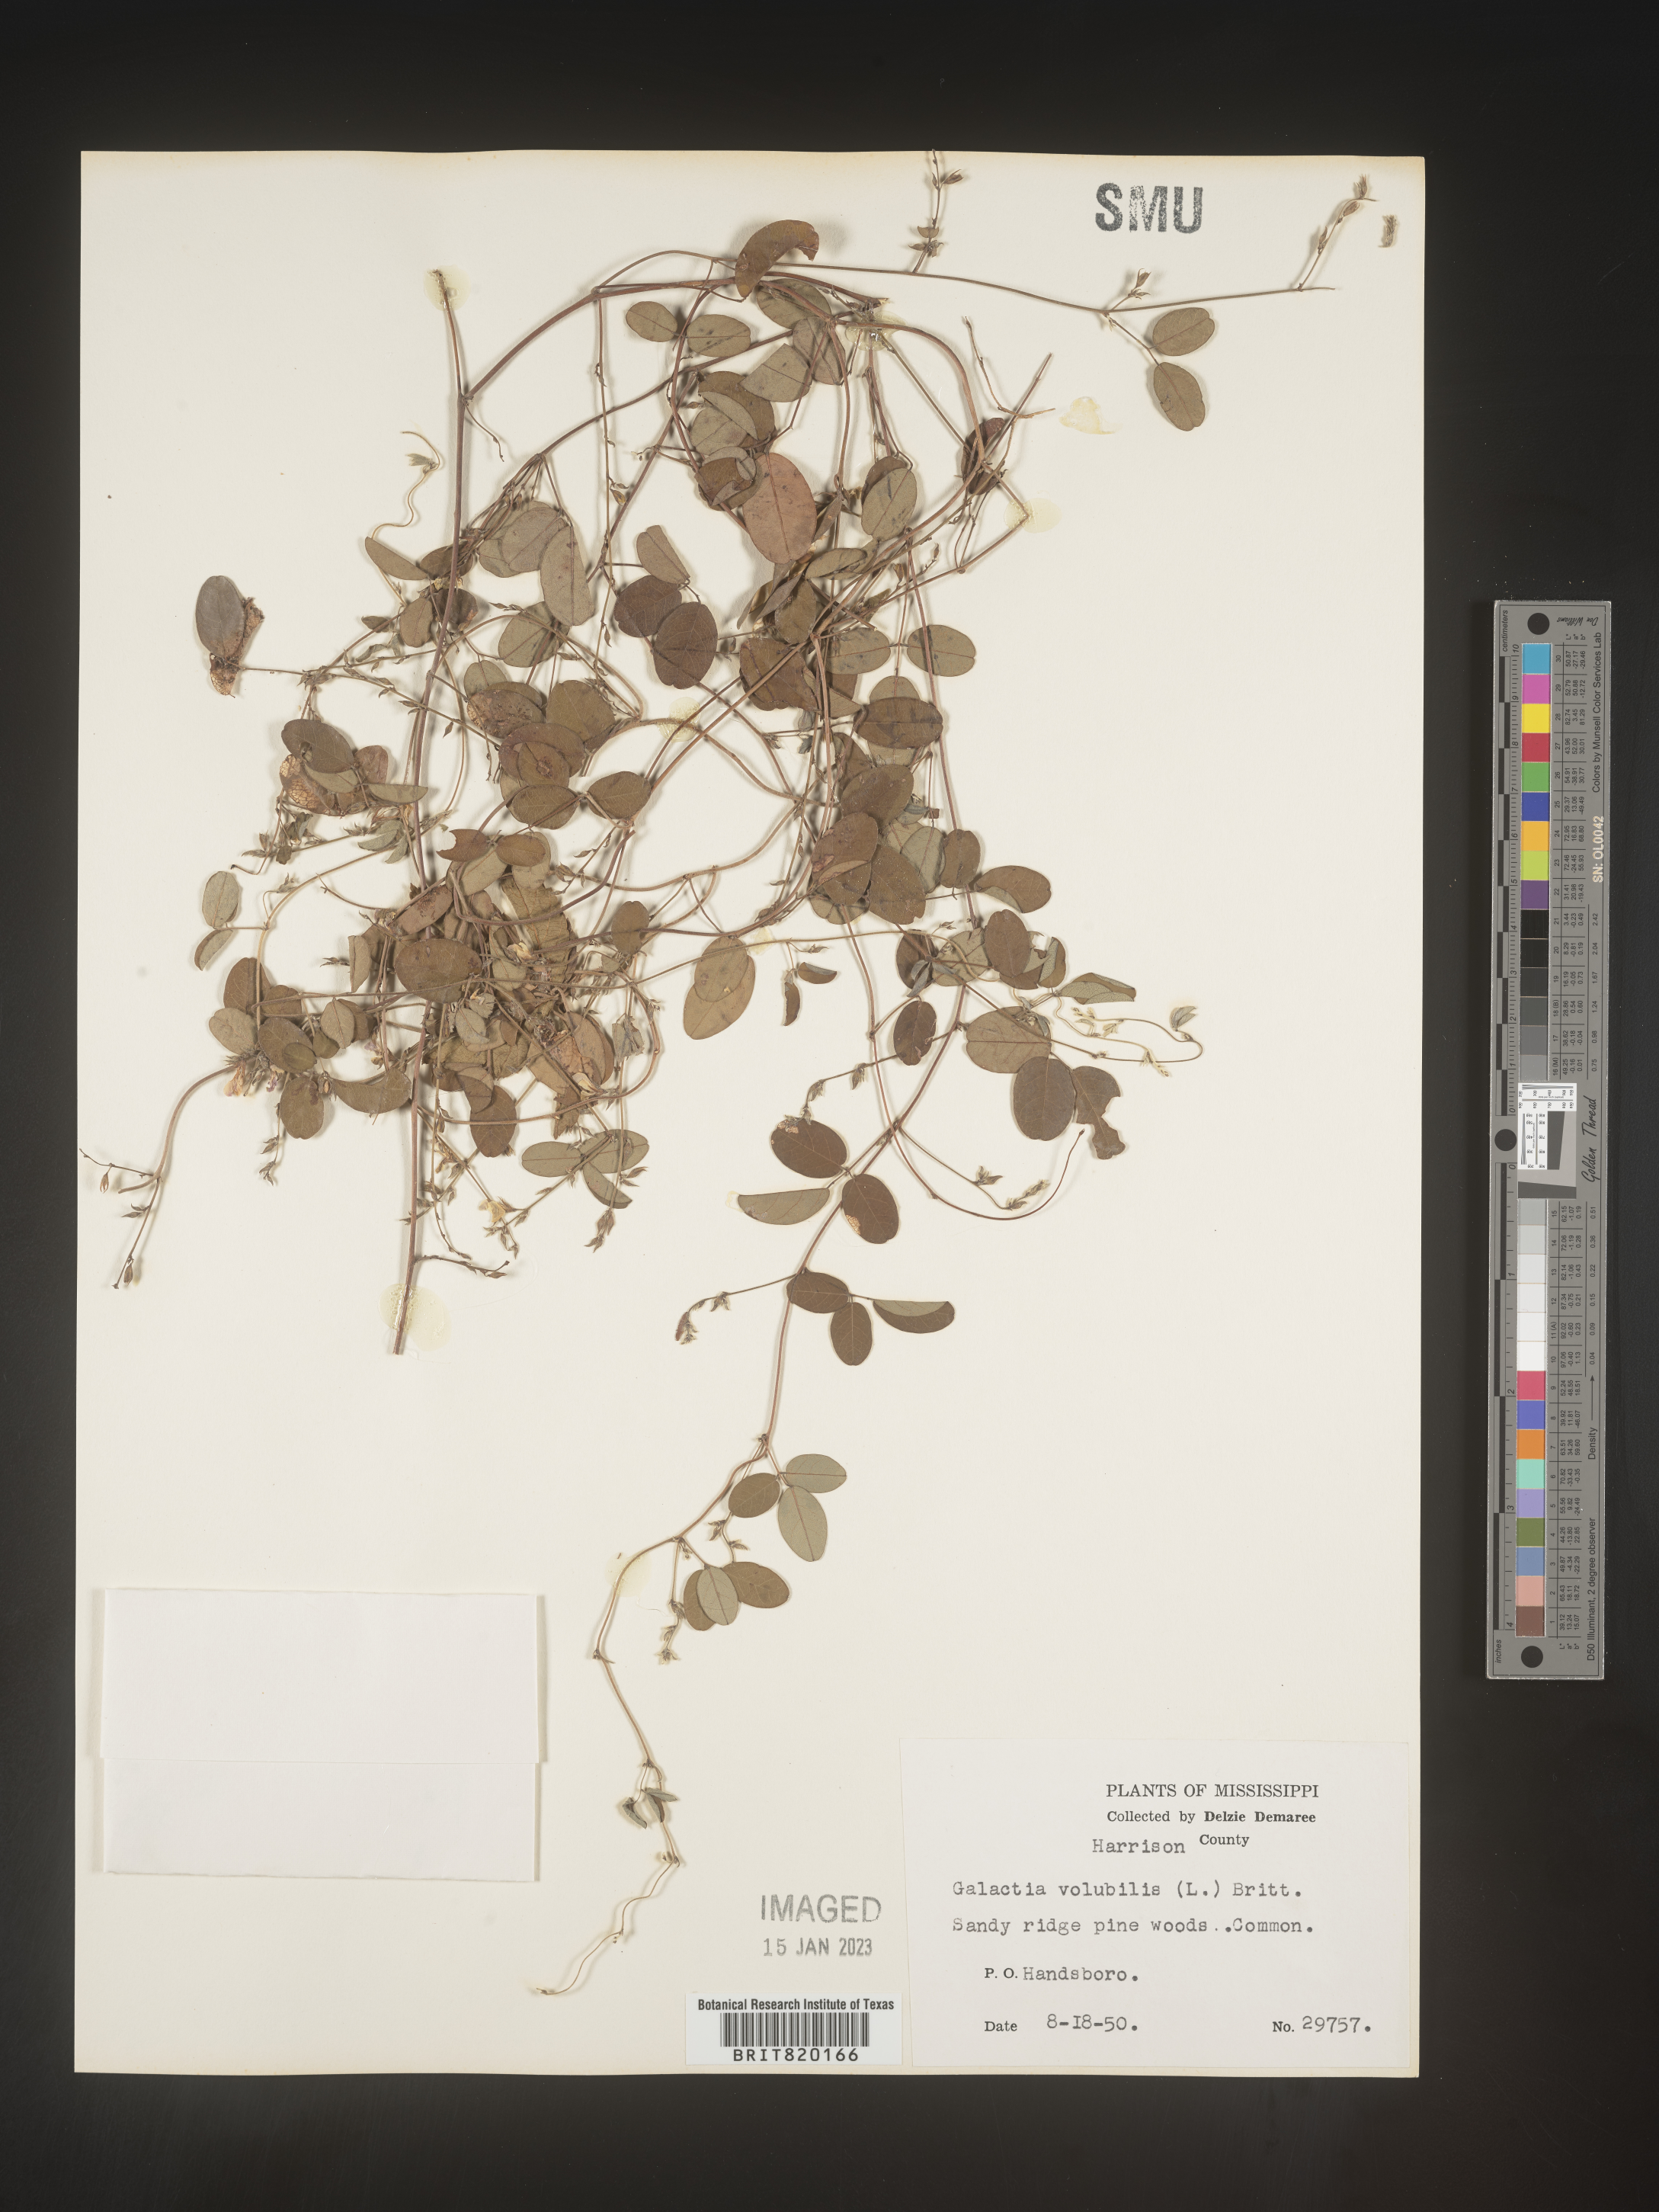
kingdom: Plantae
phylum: Tracheophyta
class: Magnoliopsida
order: Fabales
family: Fabaceae
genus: Galactia
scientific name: Galactia volubilis
